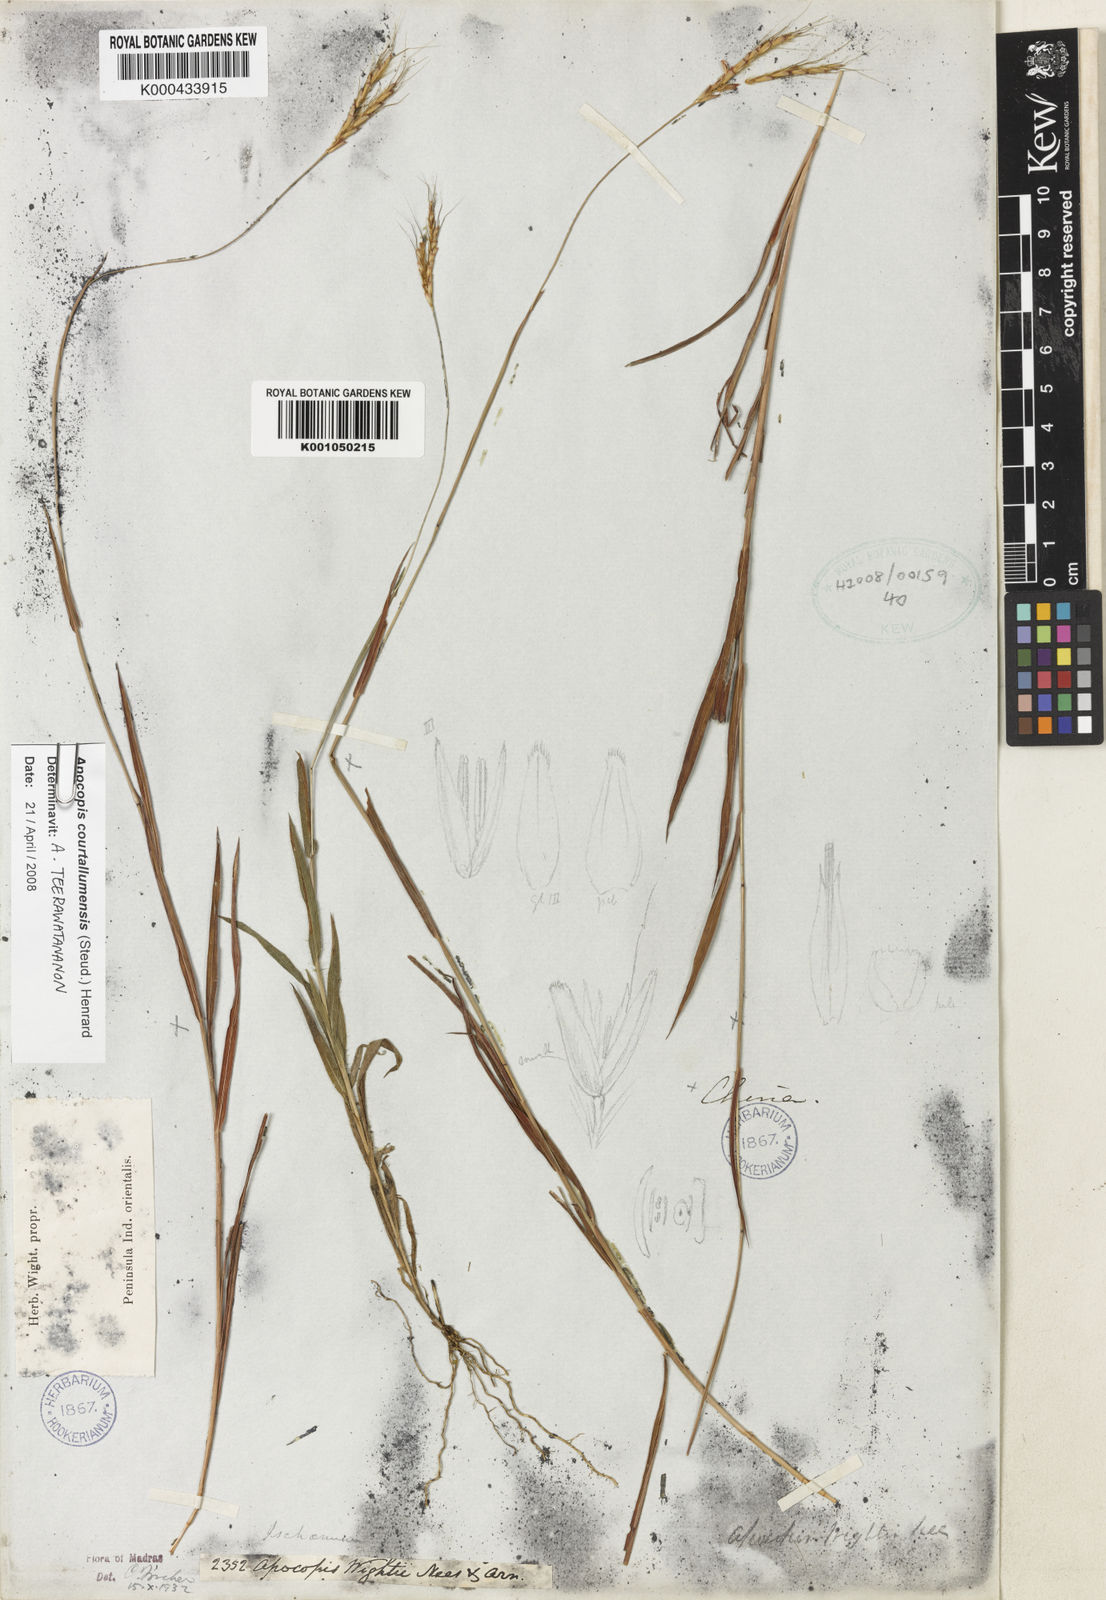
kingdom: Plantae
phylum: Tracheophyta
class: Liliopsida
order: Poales
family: Poaceae
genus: Apocopis
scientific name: Apocopis courtallumensis
